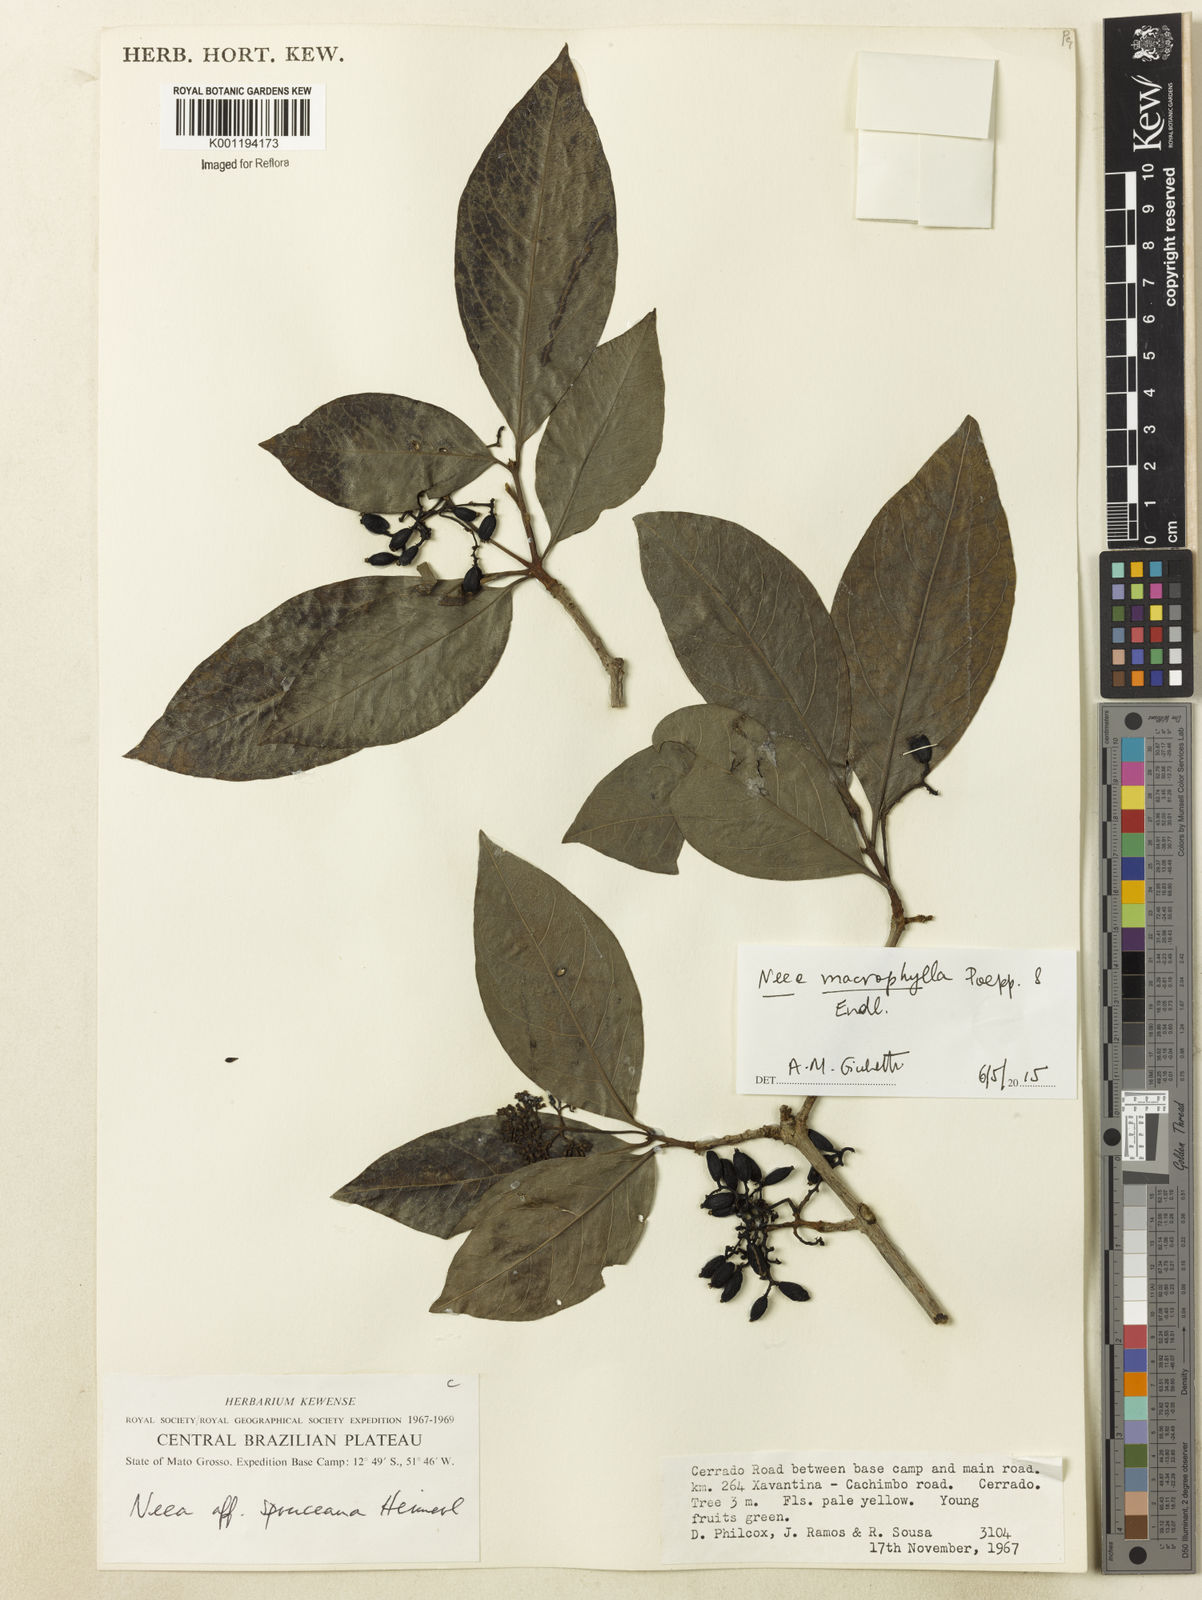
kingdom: Plantae
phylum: Tracheophyta
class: Magnoliopsida
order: Caryophyllales
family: Nyctaginaceae
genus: Neea
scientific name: Neea macrophylla
